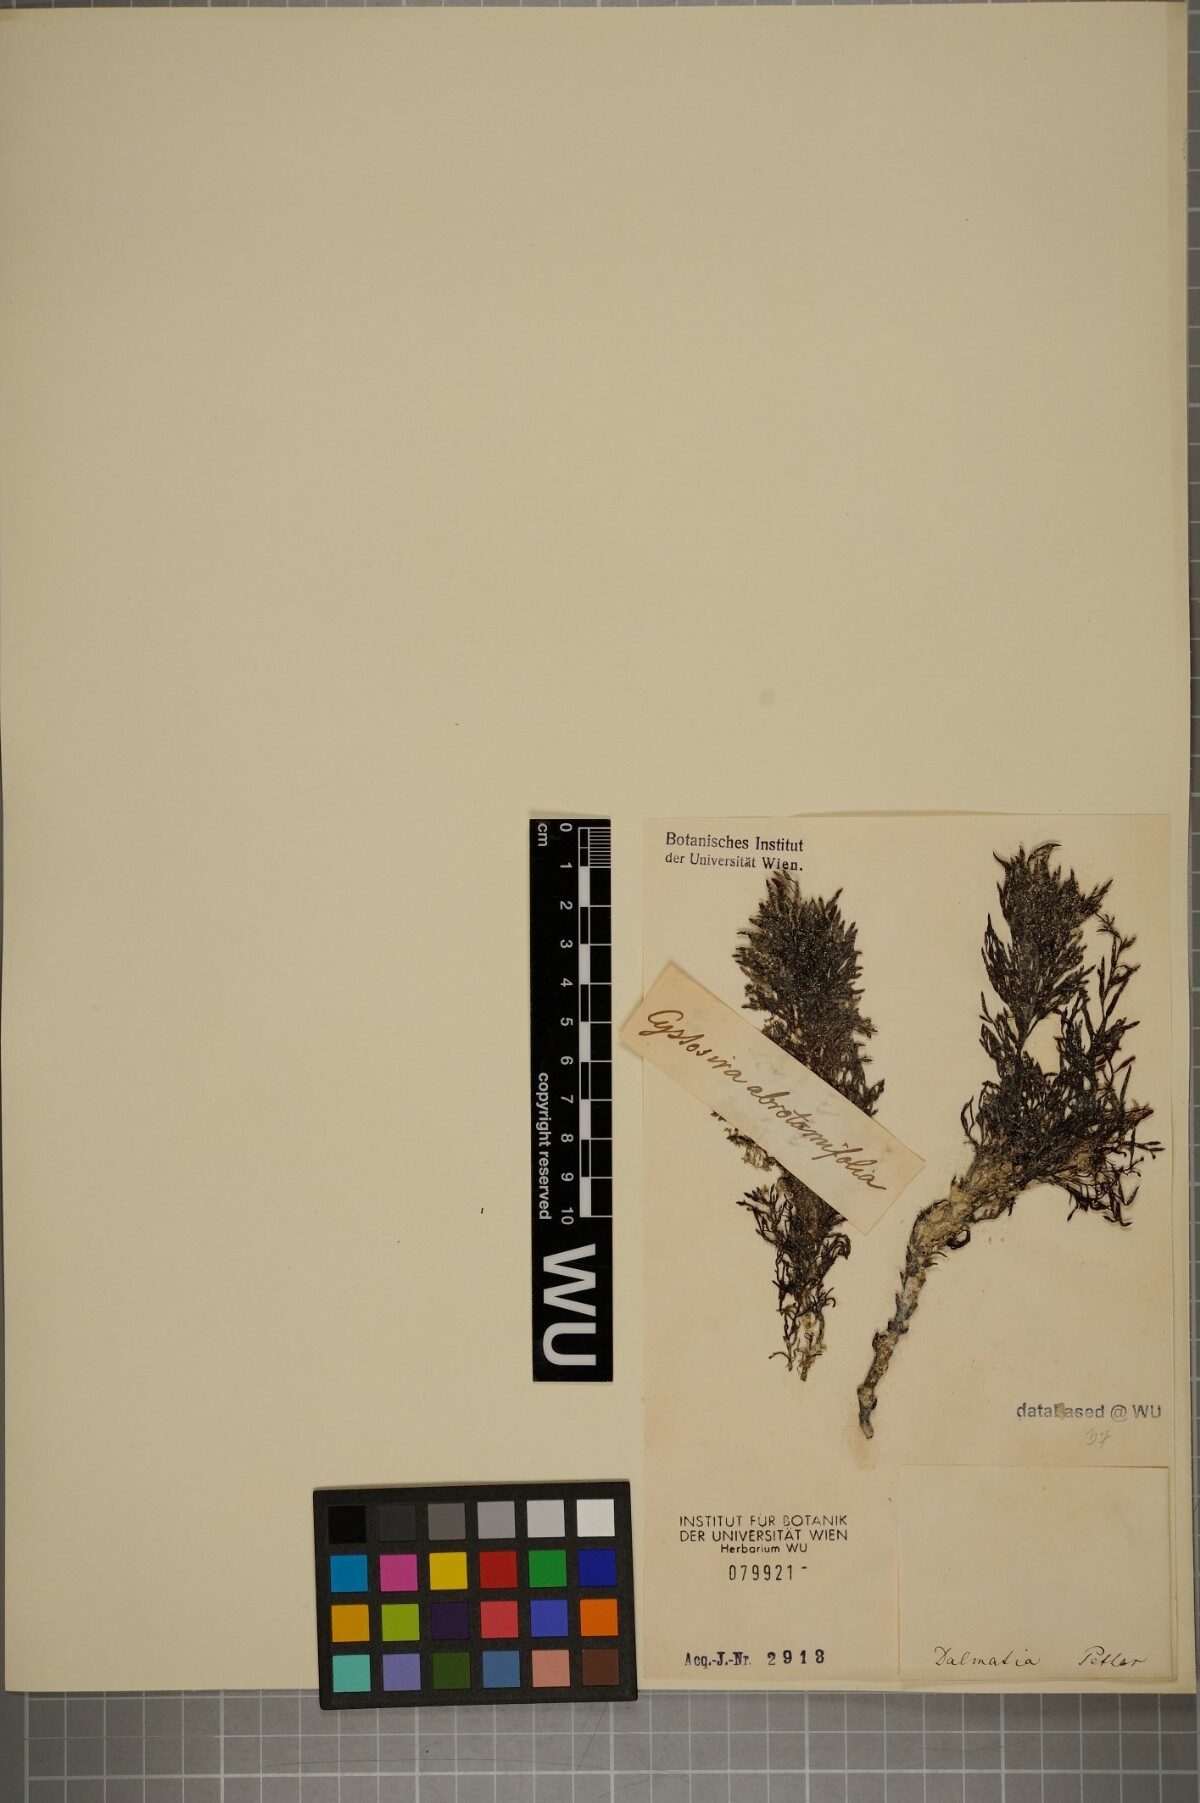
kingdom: Chromista
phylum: Ochrophyta
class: Phaeophyceae
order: Fucales
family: Sargassaceae
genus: Cystoseira
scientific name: Cystoseira foeniculacea
